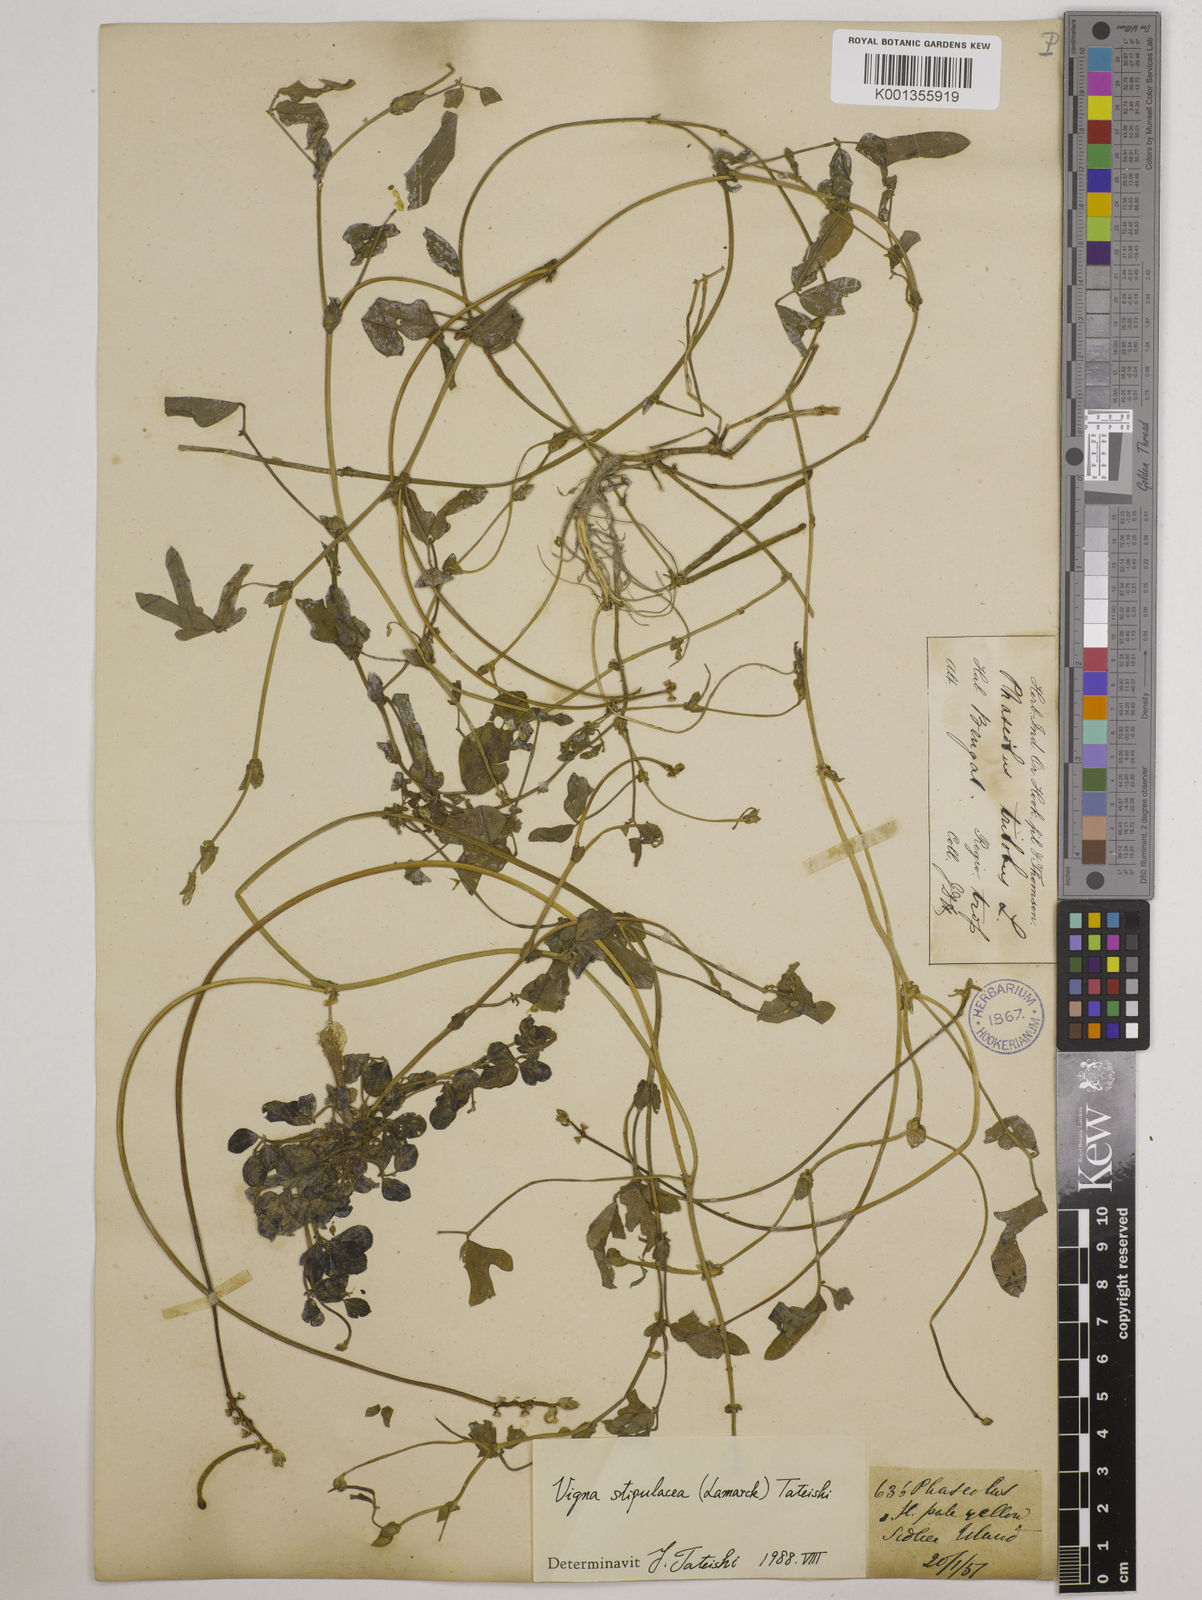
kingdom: Plantae
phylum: Tracheophyta
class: Magnoliopsida
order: Fabales
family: Fabaceae
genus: Pueraria
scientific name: Pueraria montana
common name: Kudzu
